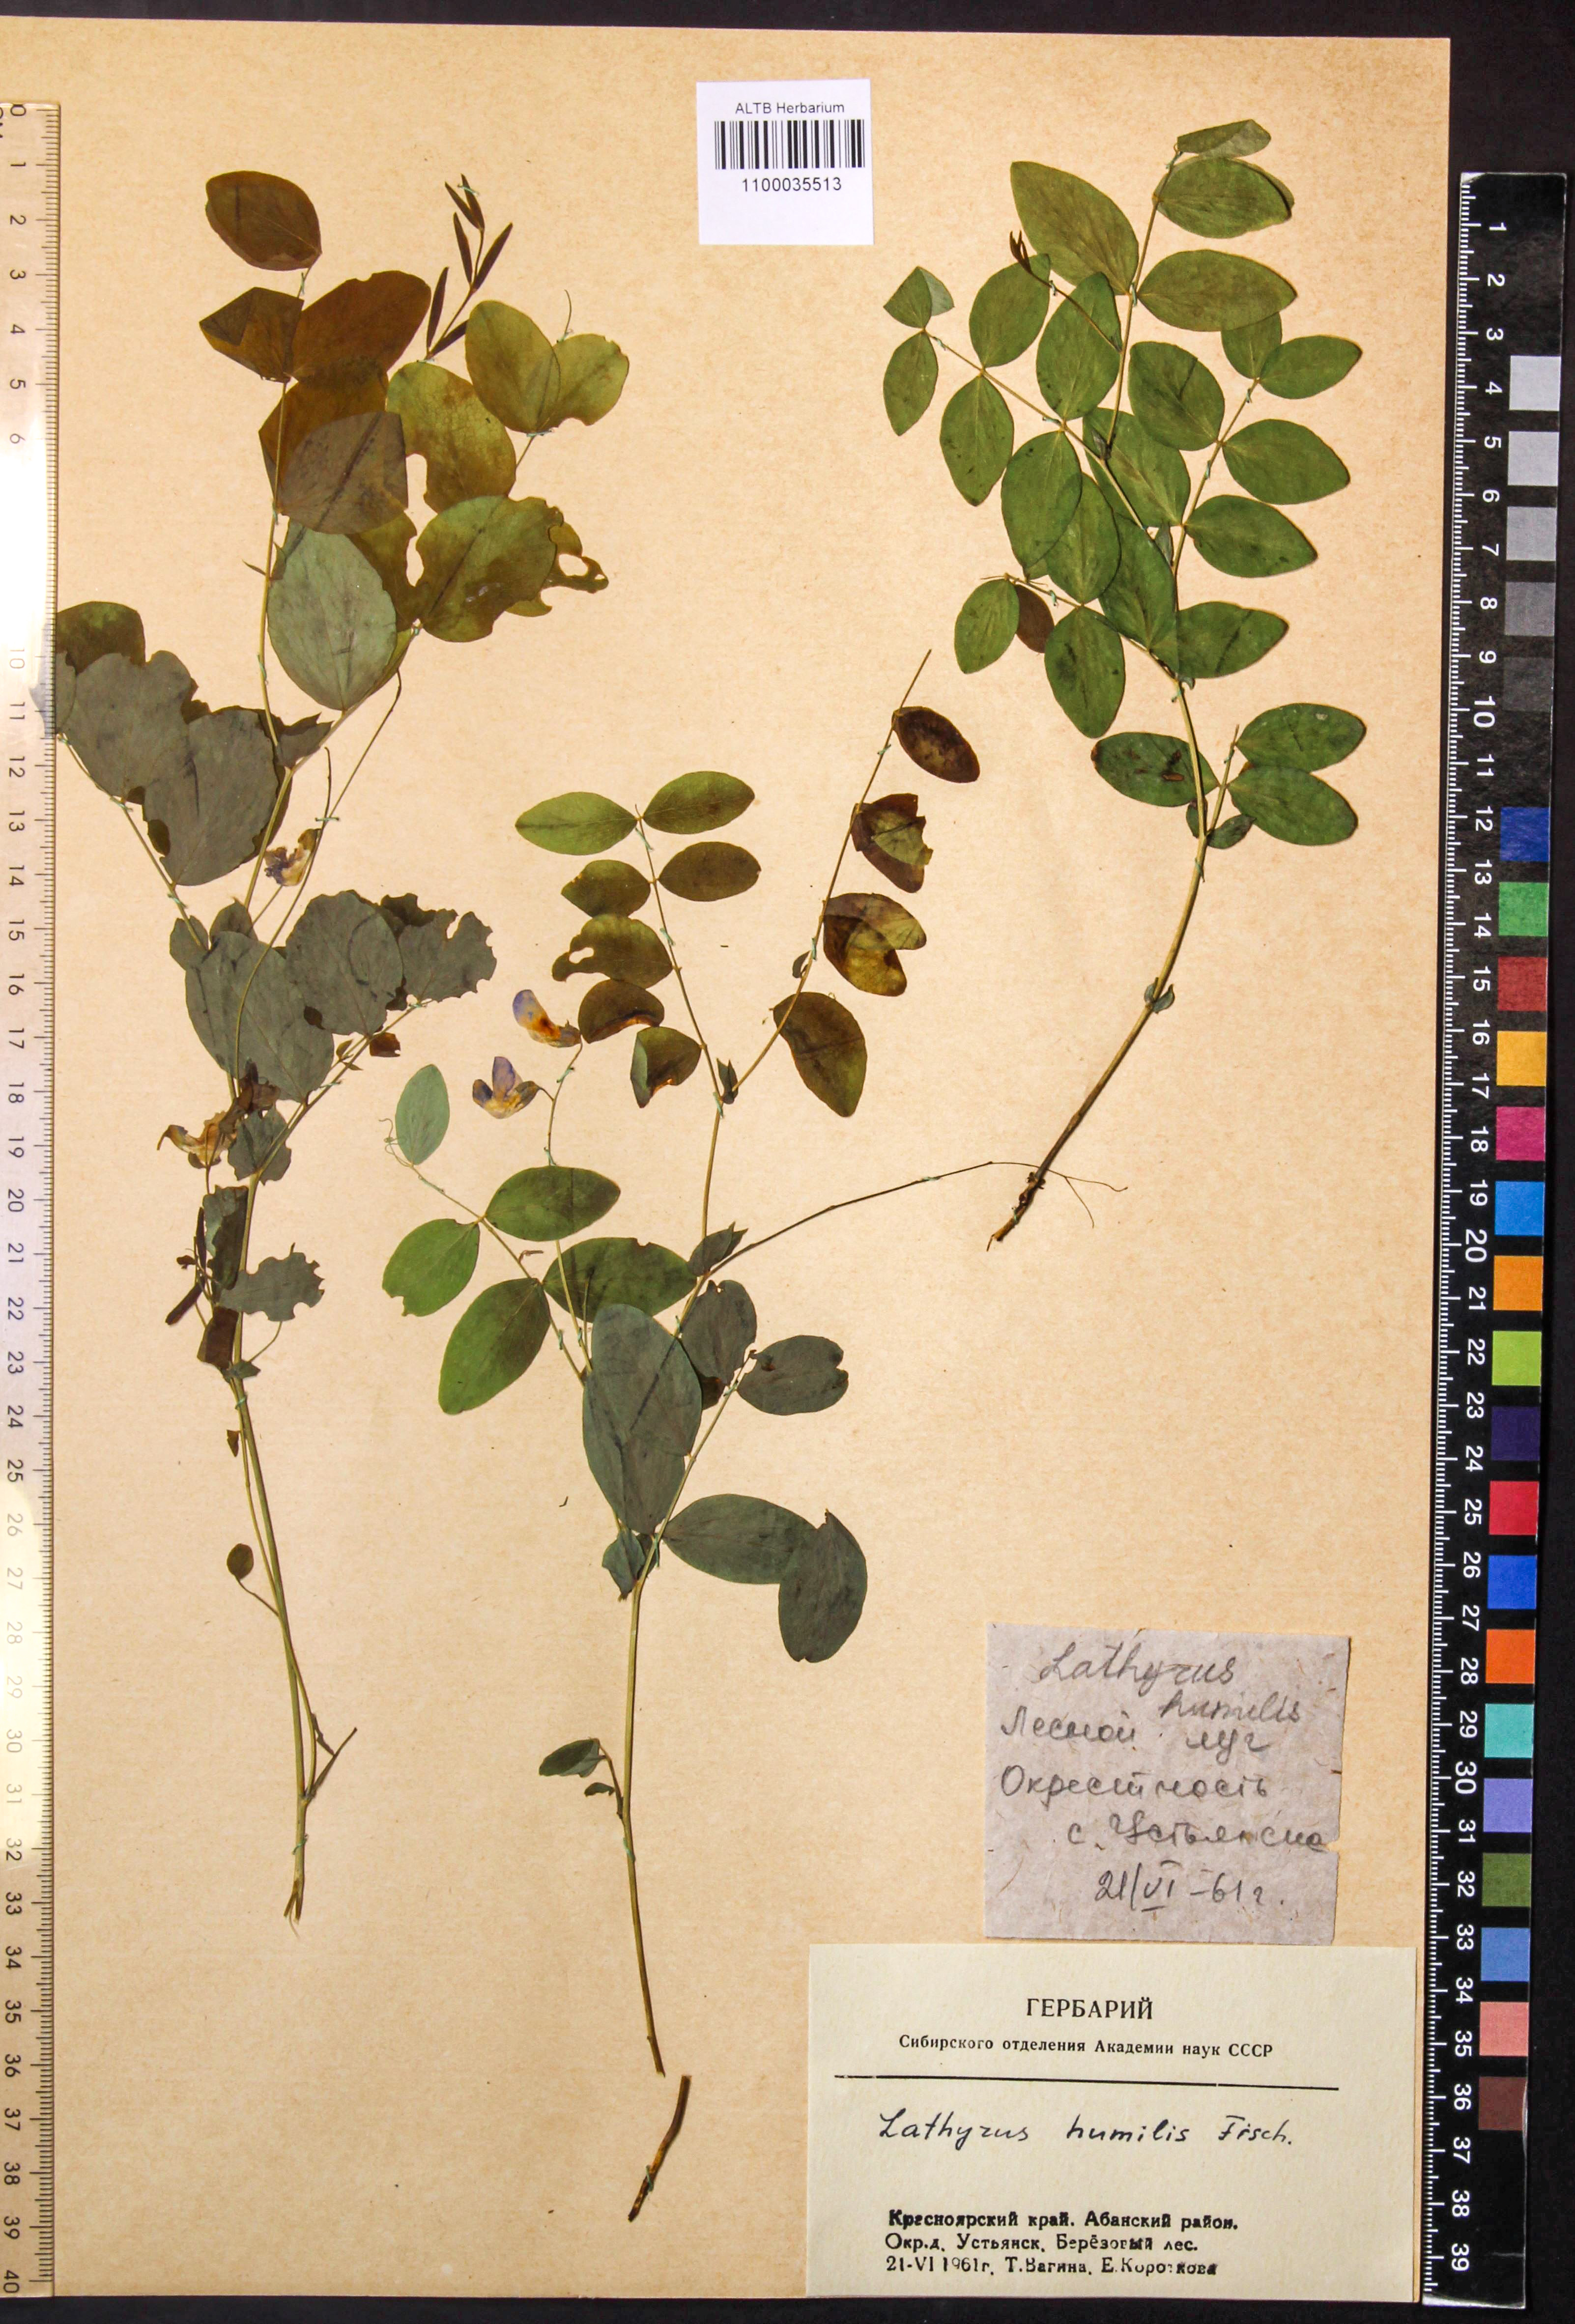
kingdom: Plantae
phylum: Tracheophyta
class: Magnoliopsida
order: Fabales
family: Fabaceae
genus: Lathyrus
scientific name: Lathyrus humilis
